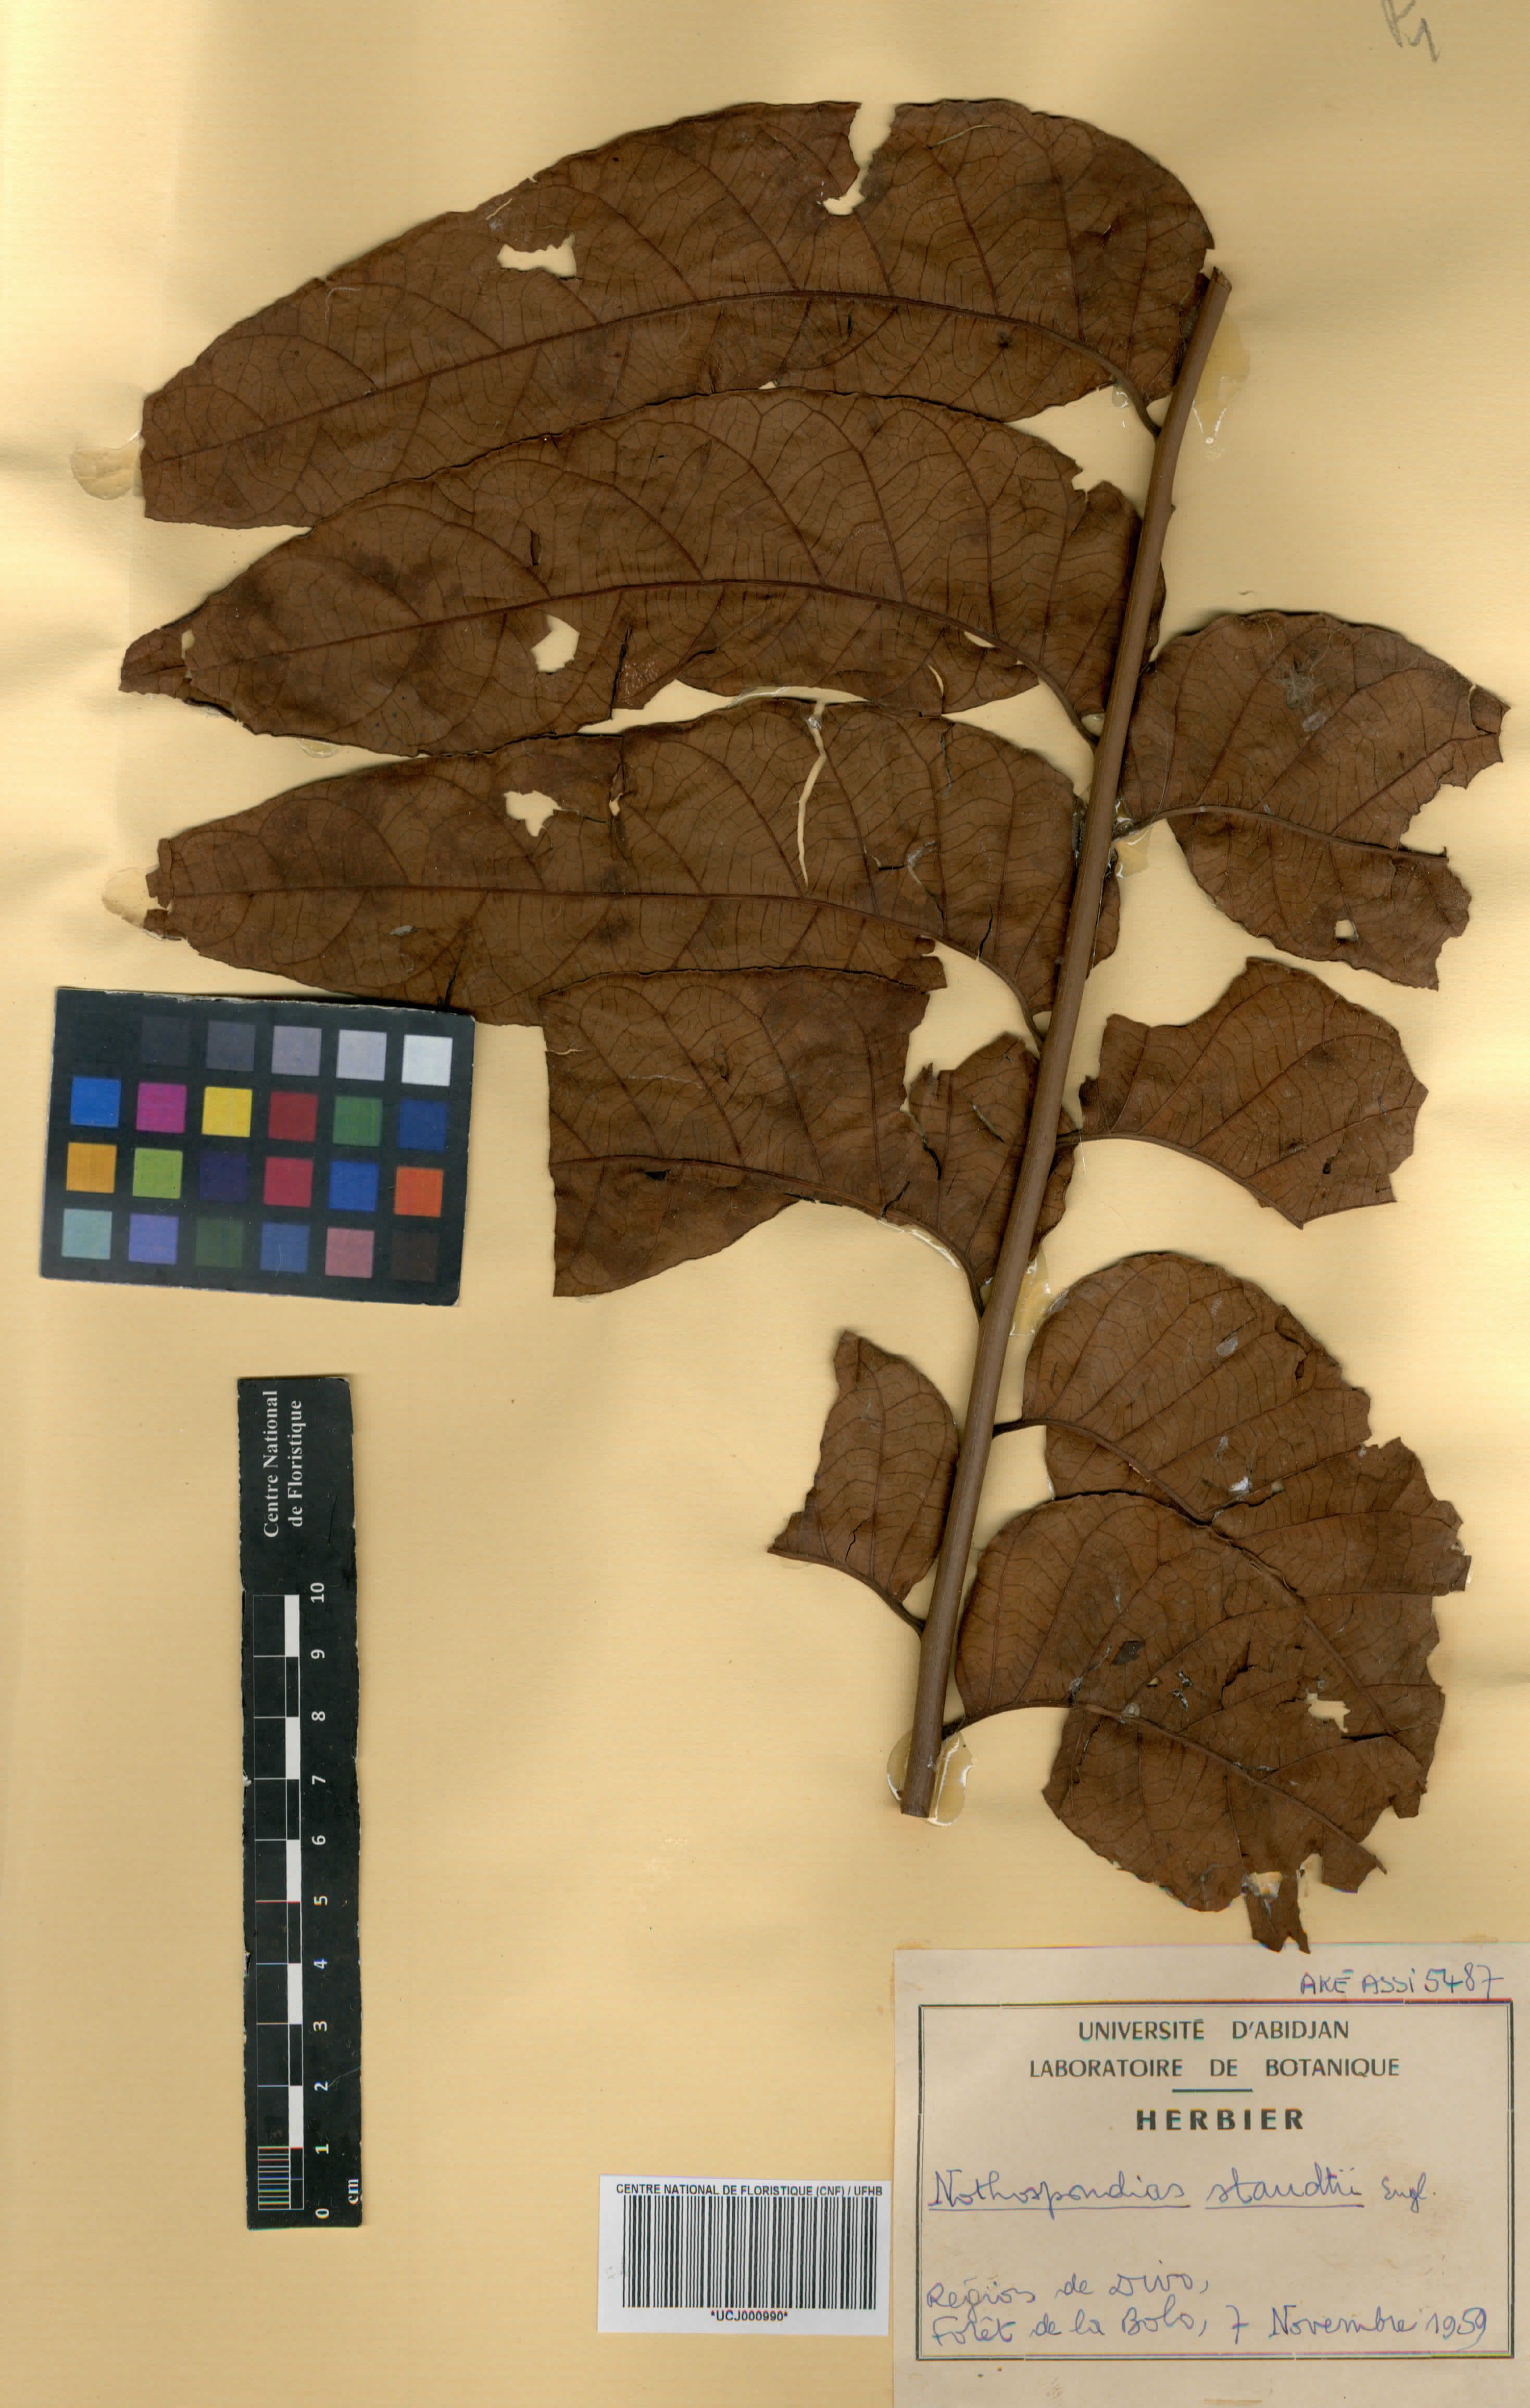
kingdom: Plantae
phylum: Tracheophyta
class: Magnoliopsida
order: Sapindales
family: Simaroubaceae
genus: Nothospondias
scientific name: Nothospondias staudtii
